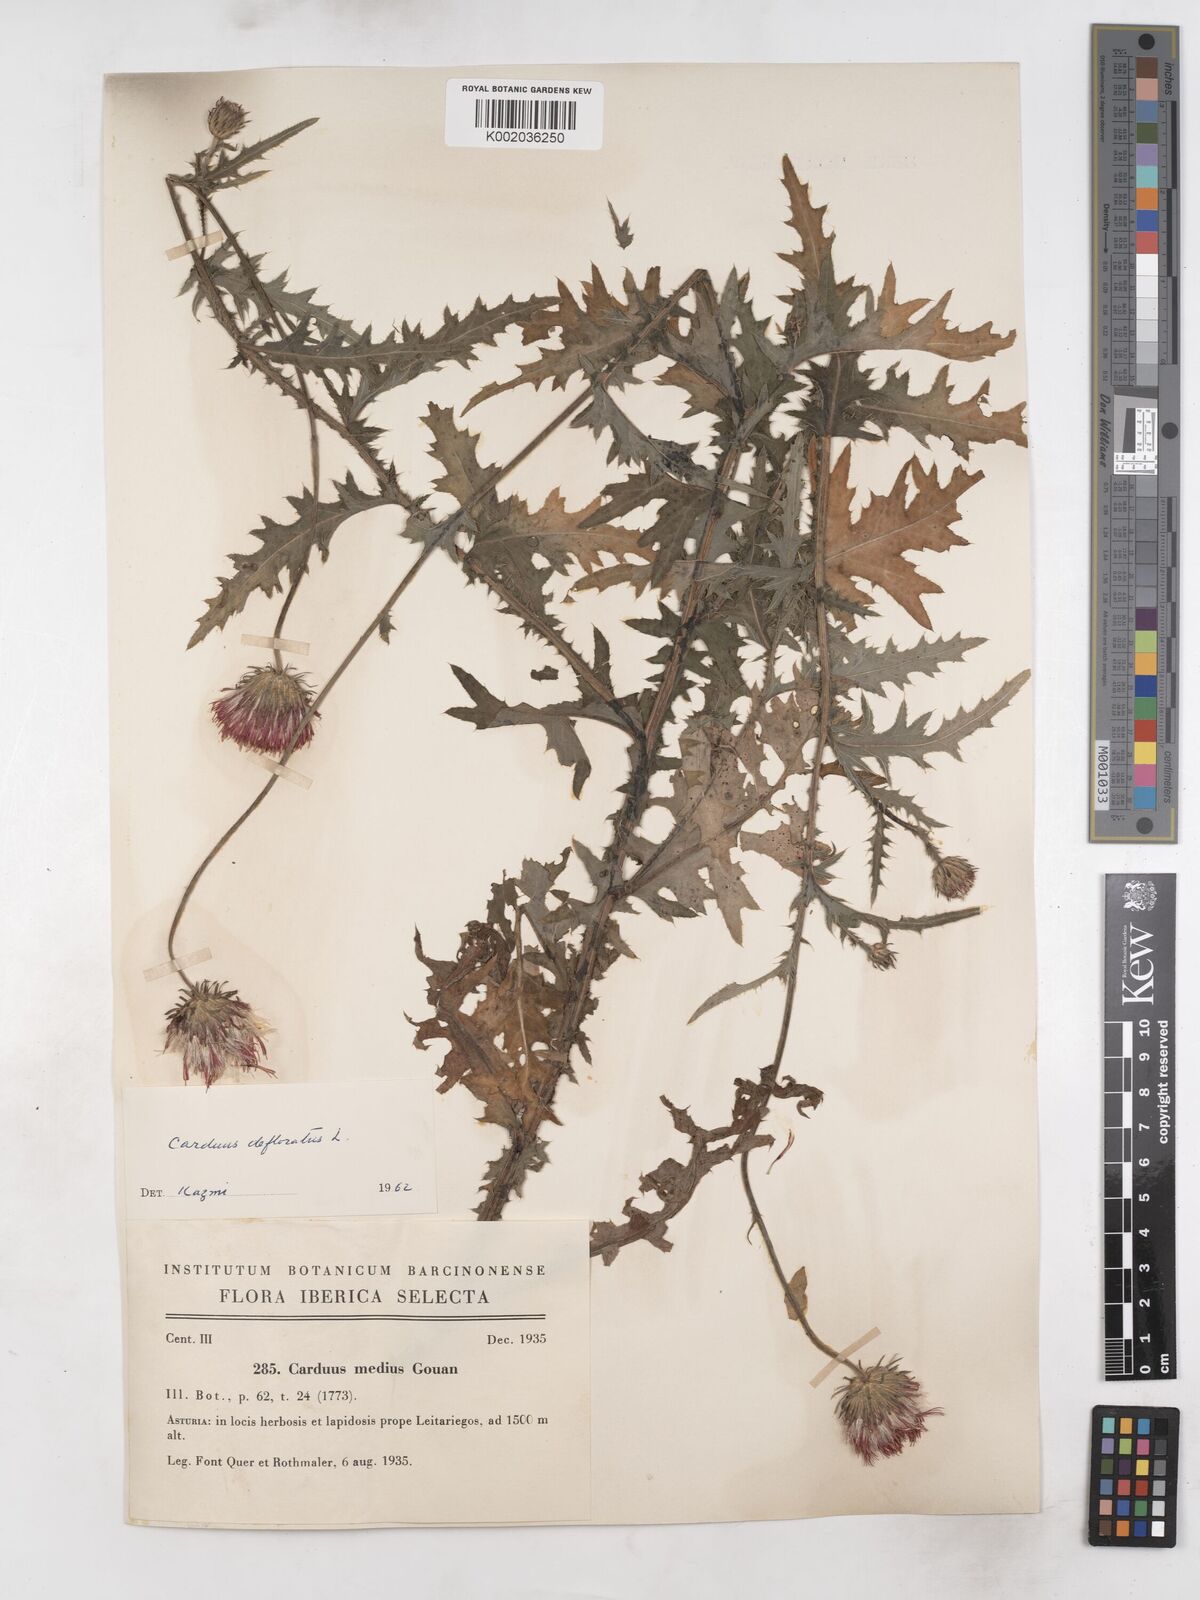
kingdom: Plantae
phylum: Tracheophyta
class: Magnoliopsida
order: Asterales
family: Asteraceae
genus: Carduus
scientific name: Carduus defloratus
